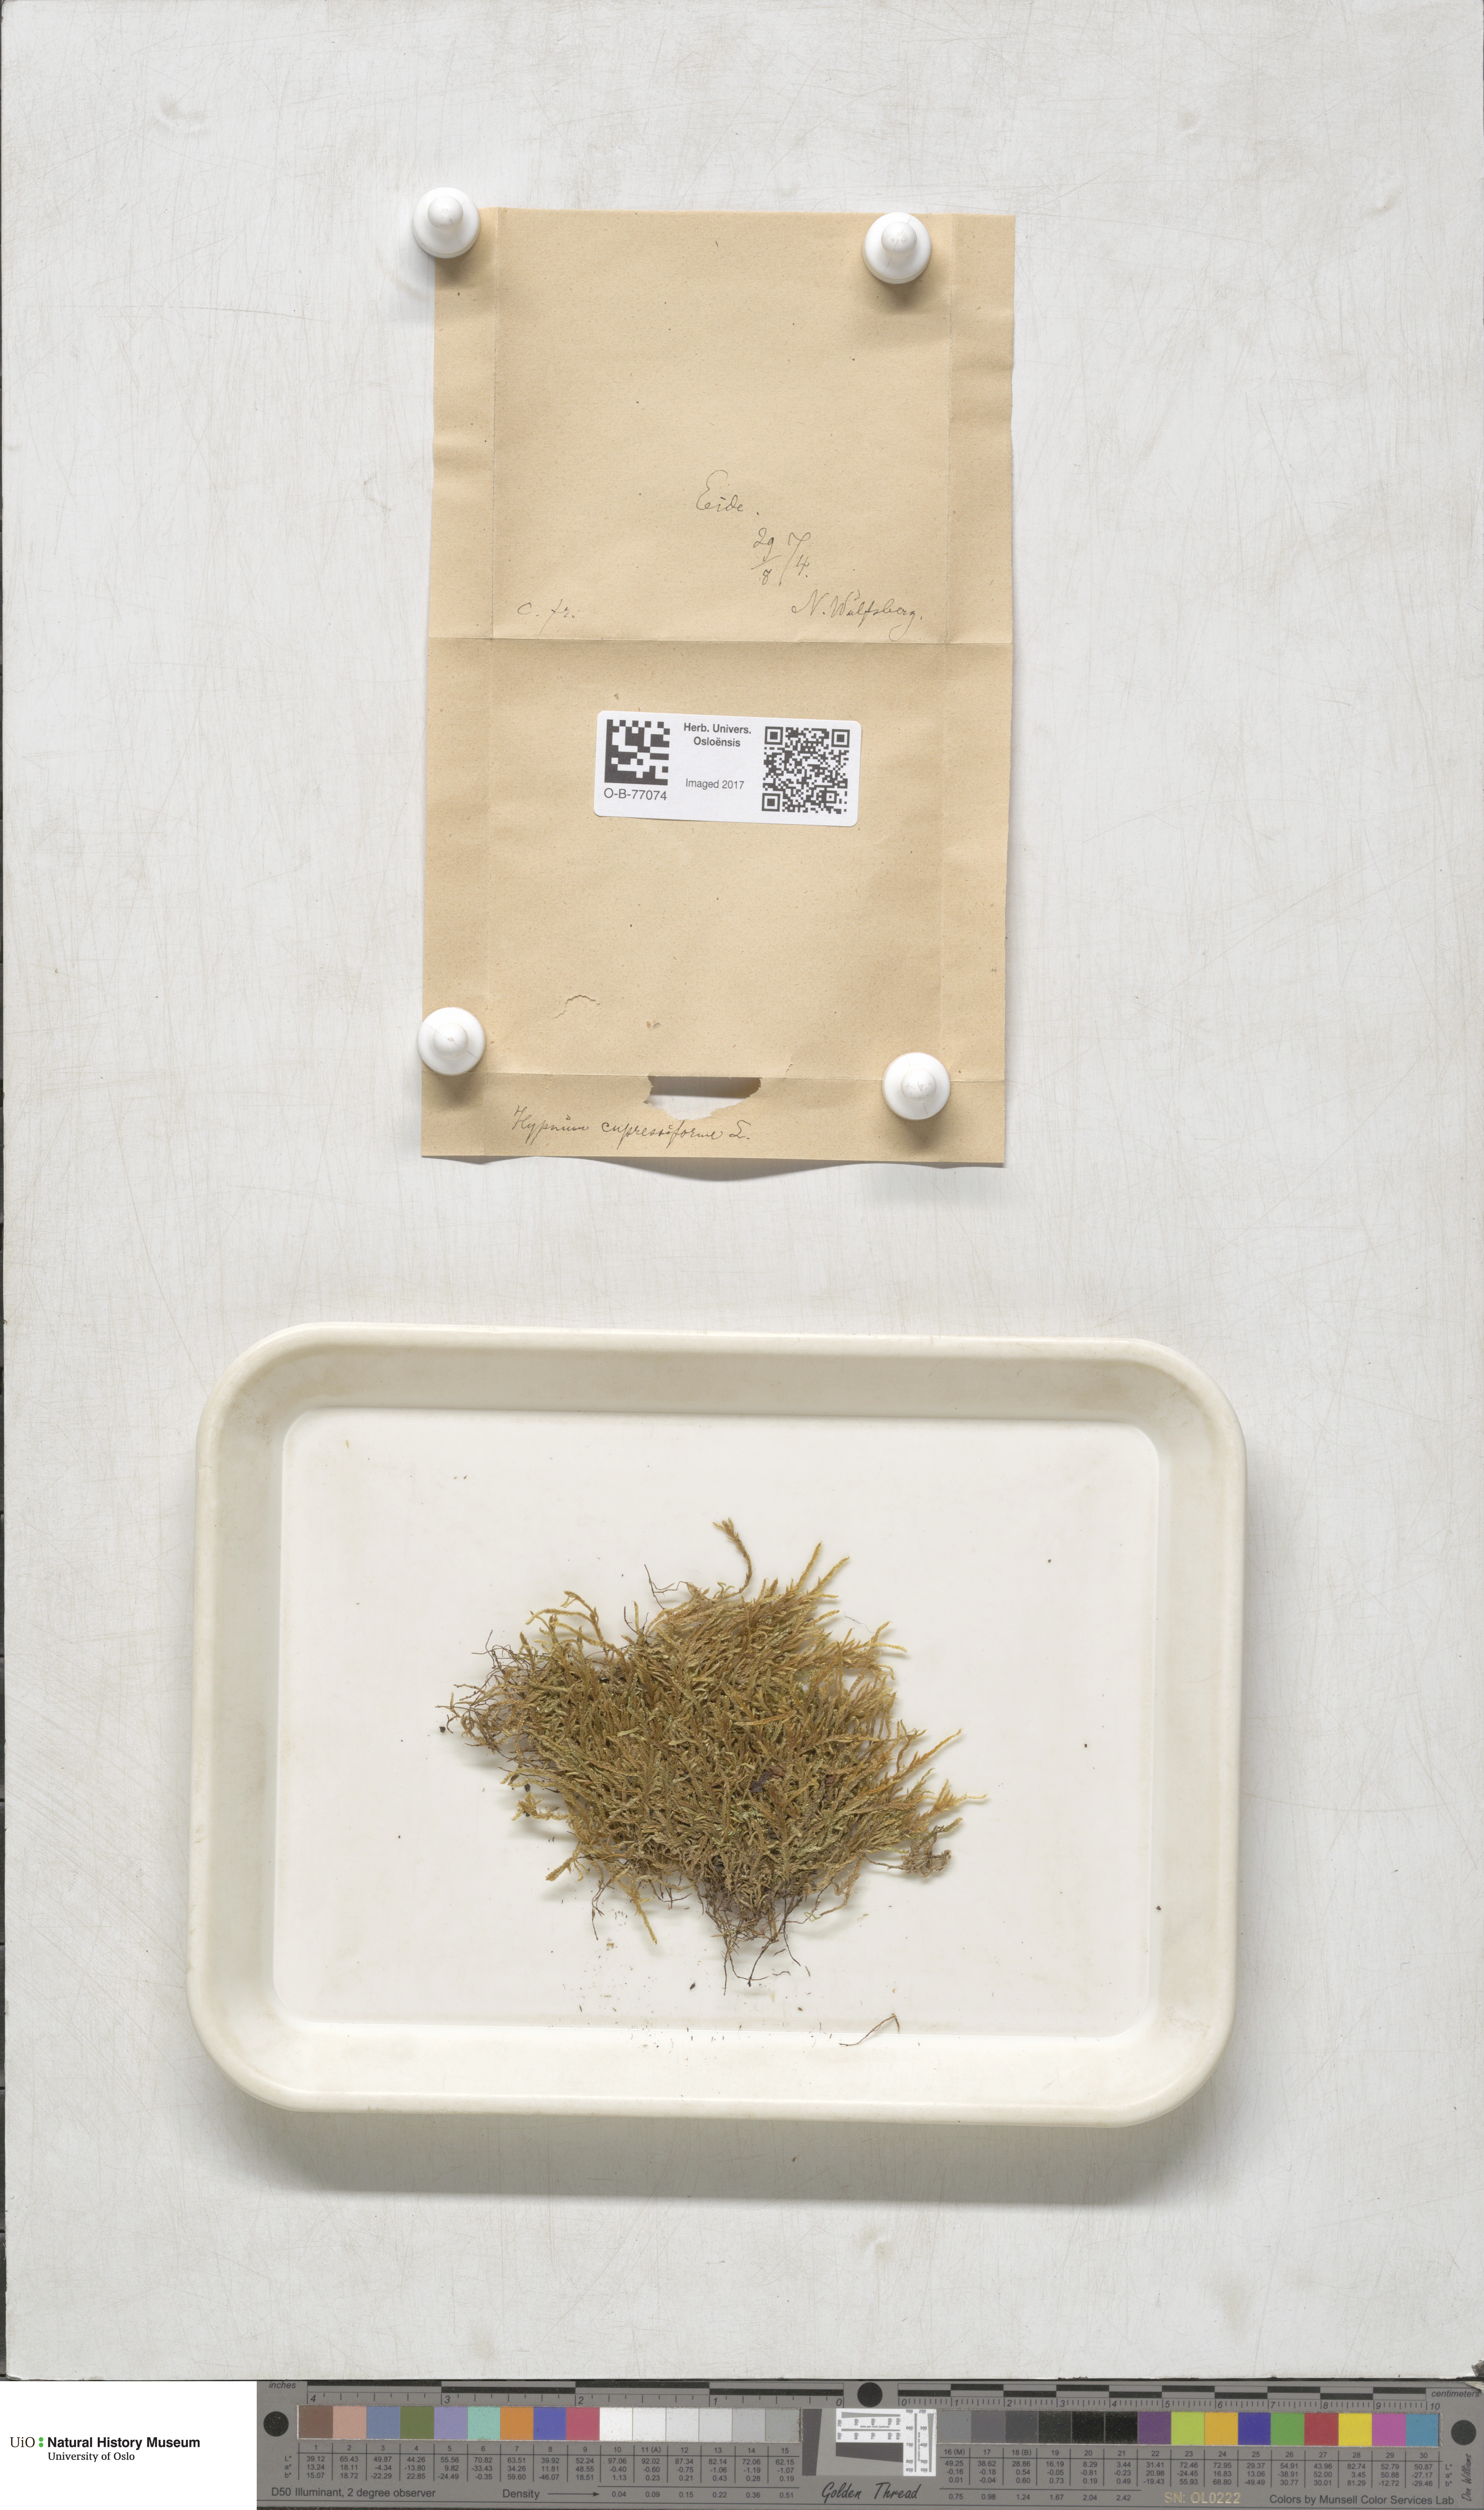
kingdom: Plantae
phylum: Bryophyta
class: Bryopsida
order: Hypnales
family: Hypnaceae
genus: Hypnum
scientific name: Hypnum cupressiforme
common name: Cypress-leaved plait-moss
